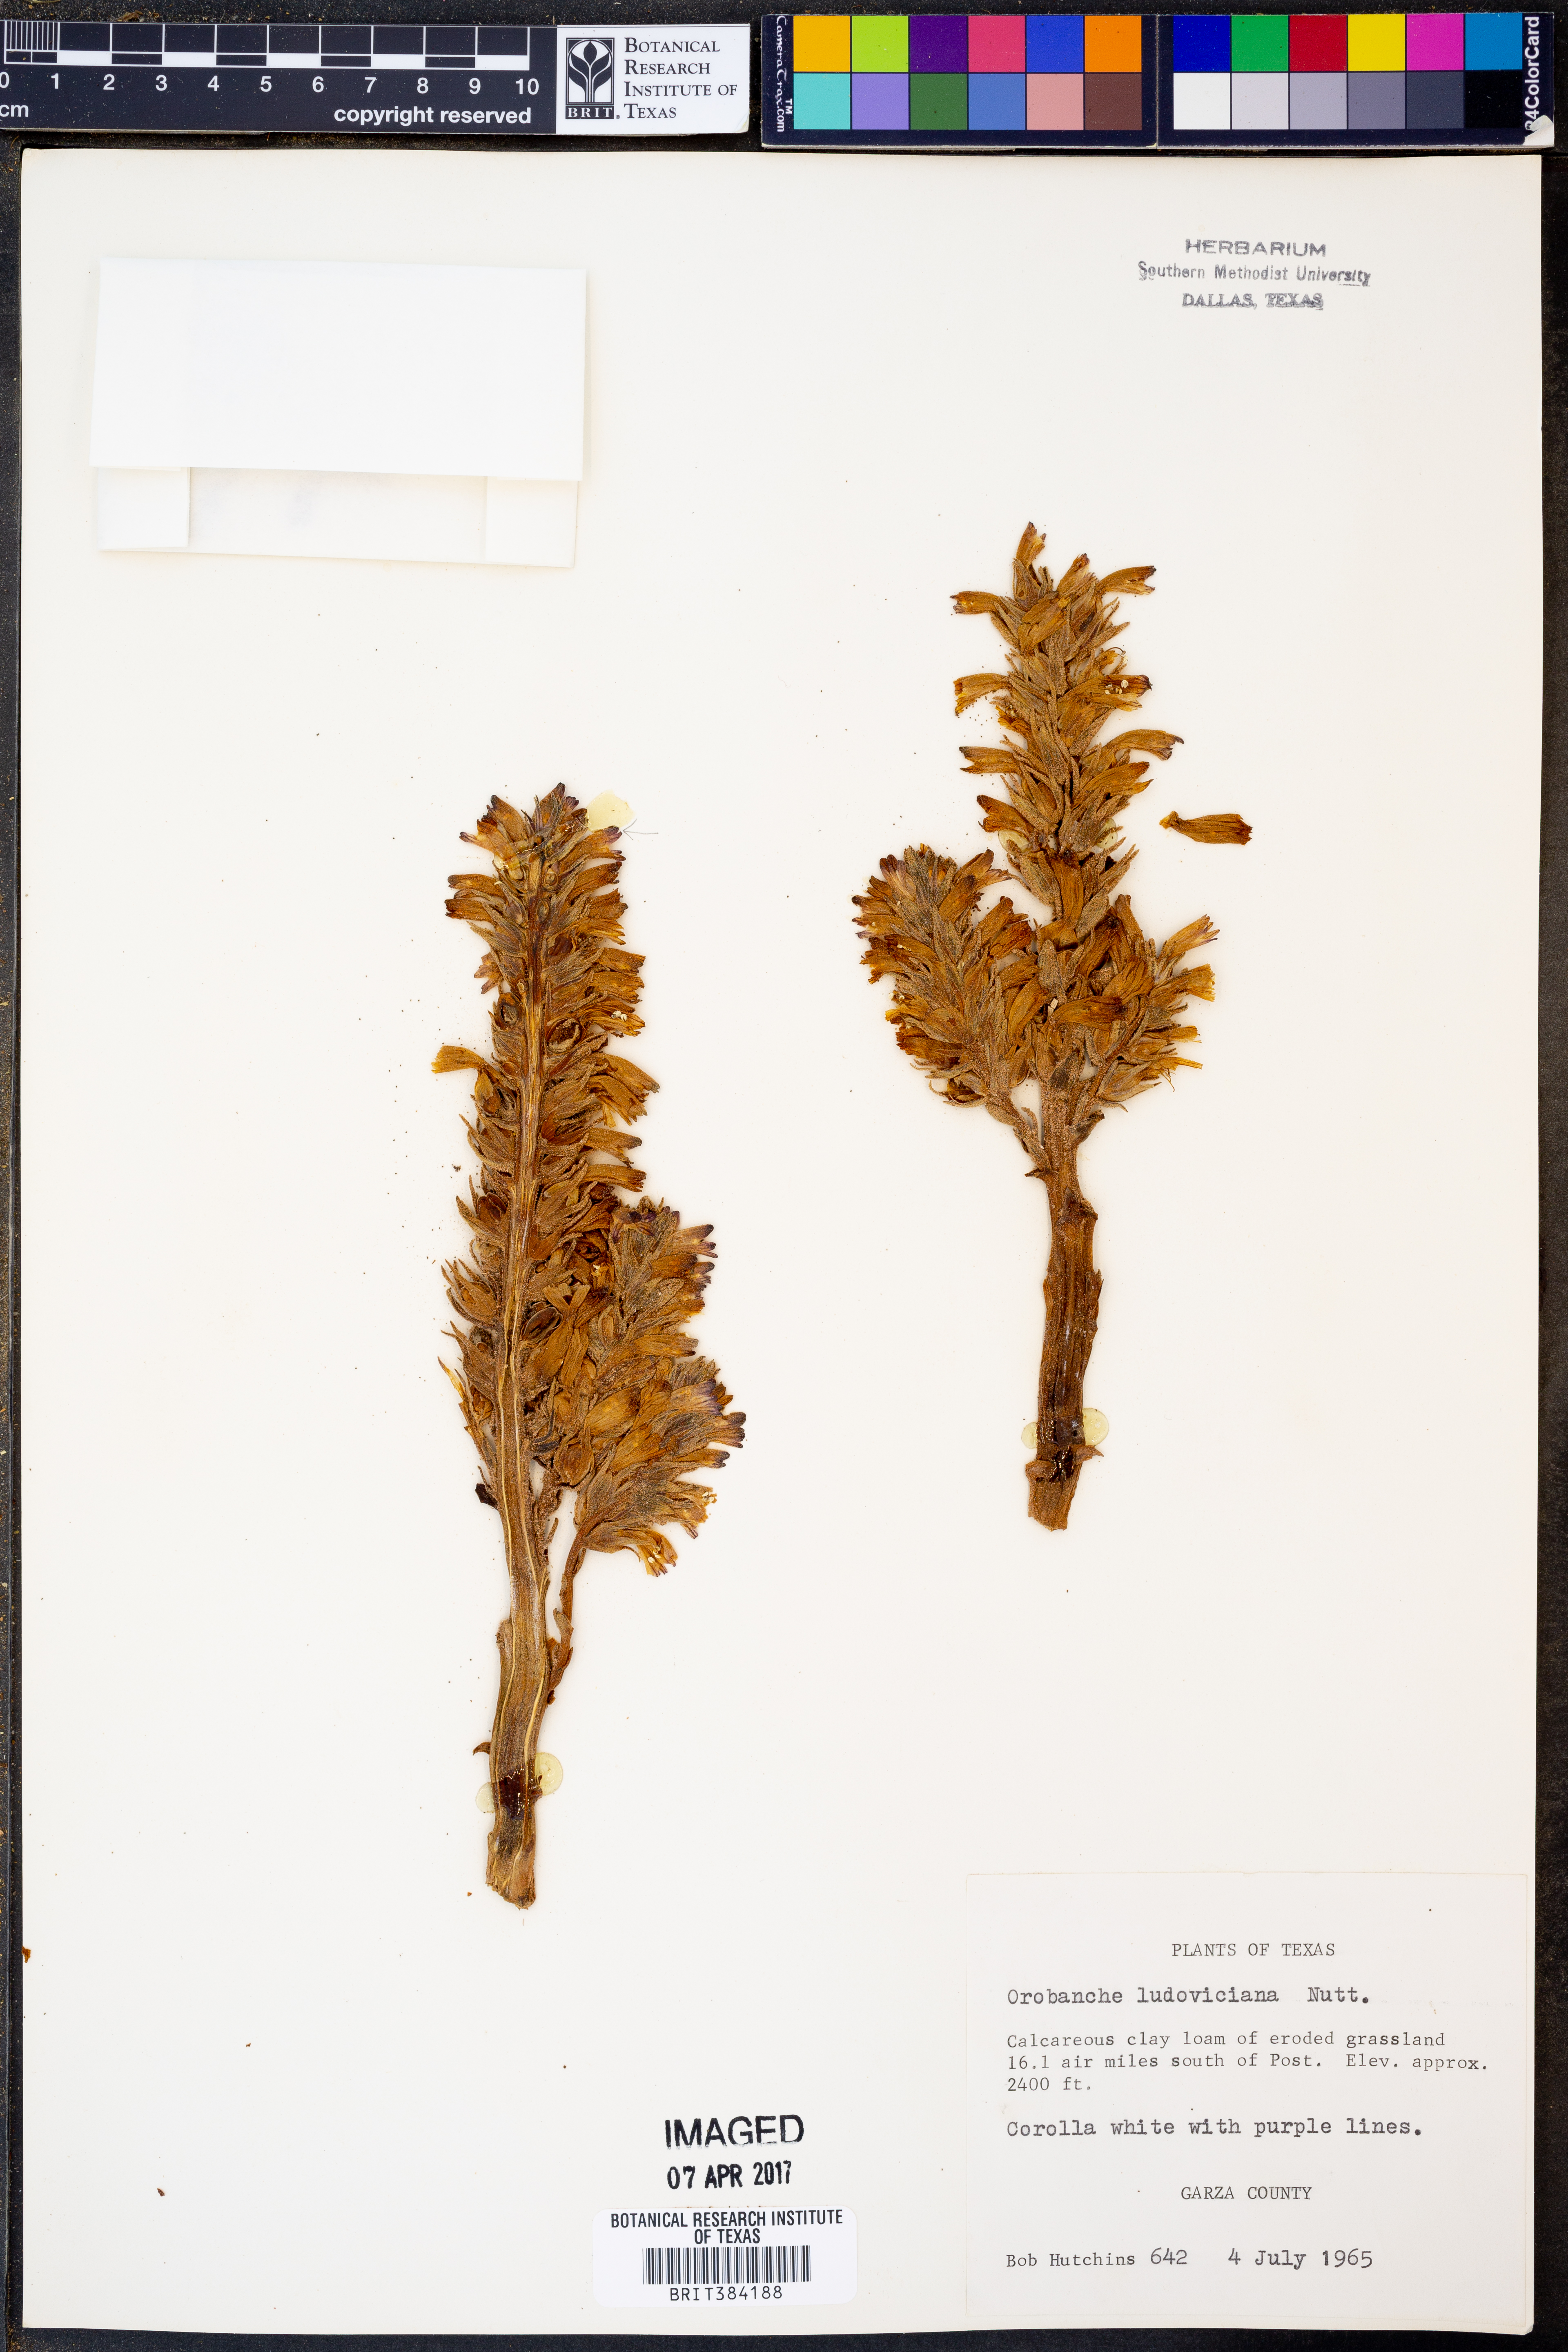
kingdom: Plantae
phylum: Tracheophyta
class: Magnoliopsida
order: Lamiales
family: Orobanchaceae
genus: Aphyllon
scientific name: Aphyllon ludovicianum
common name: Louisiana broomrape
